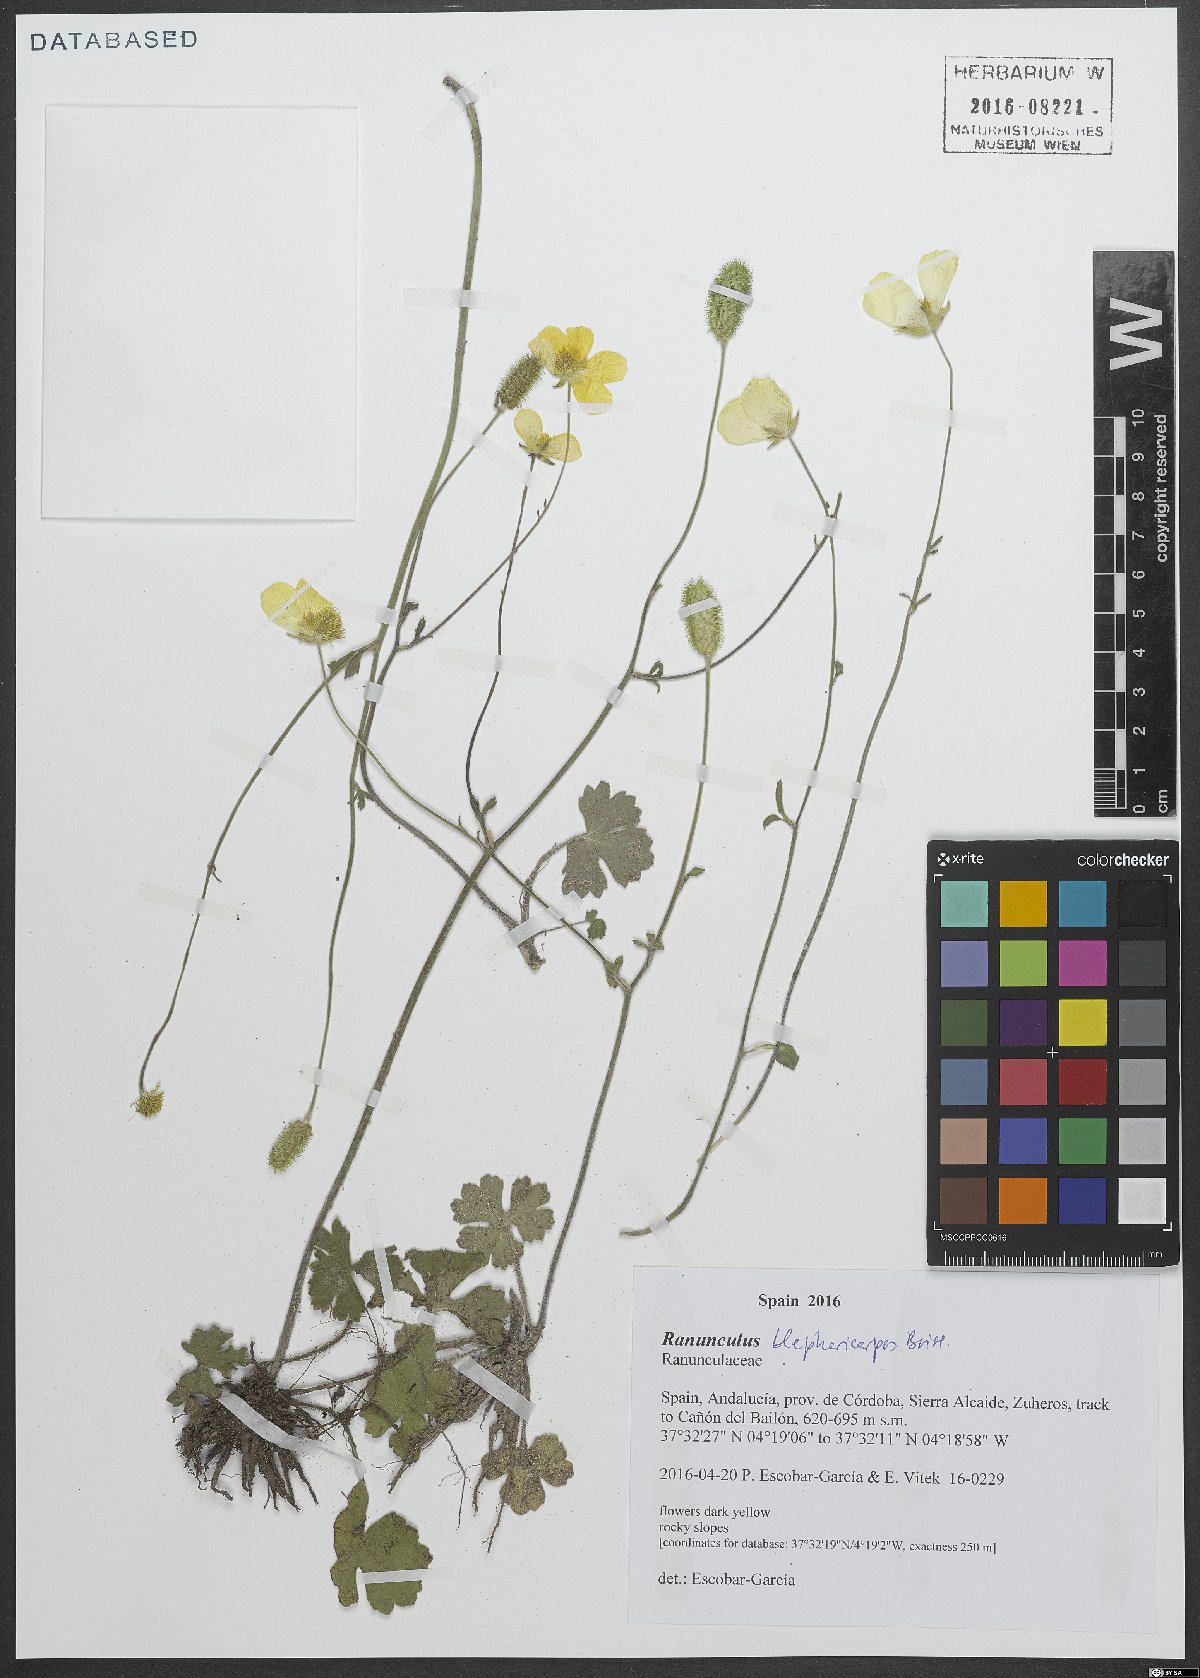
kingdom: Plantae
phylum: Tracheophyta
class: Magnoliopsida
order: Ranunculales
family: Ranunculaceae
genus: Ranunculus
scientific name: Ranunculus spicatus
